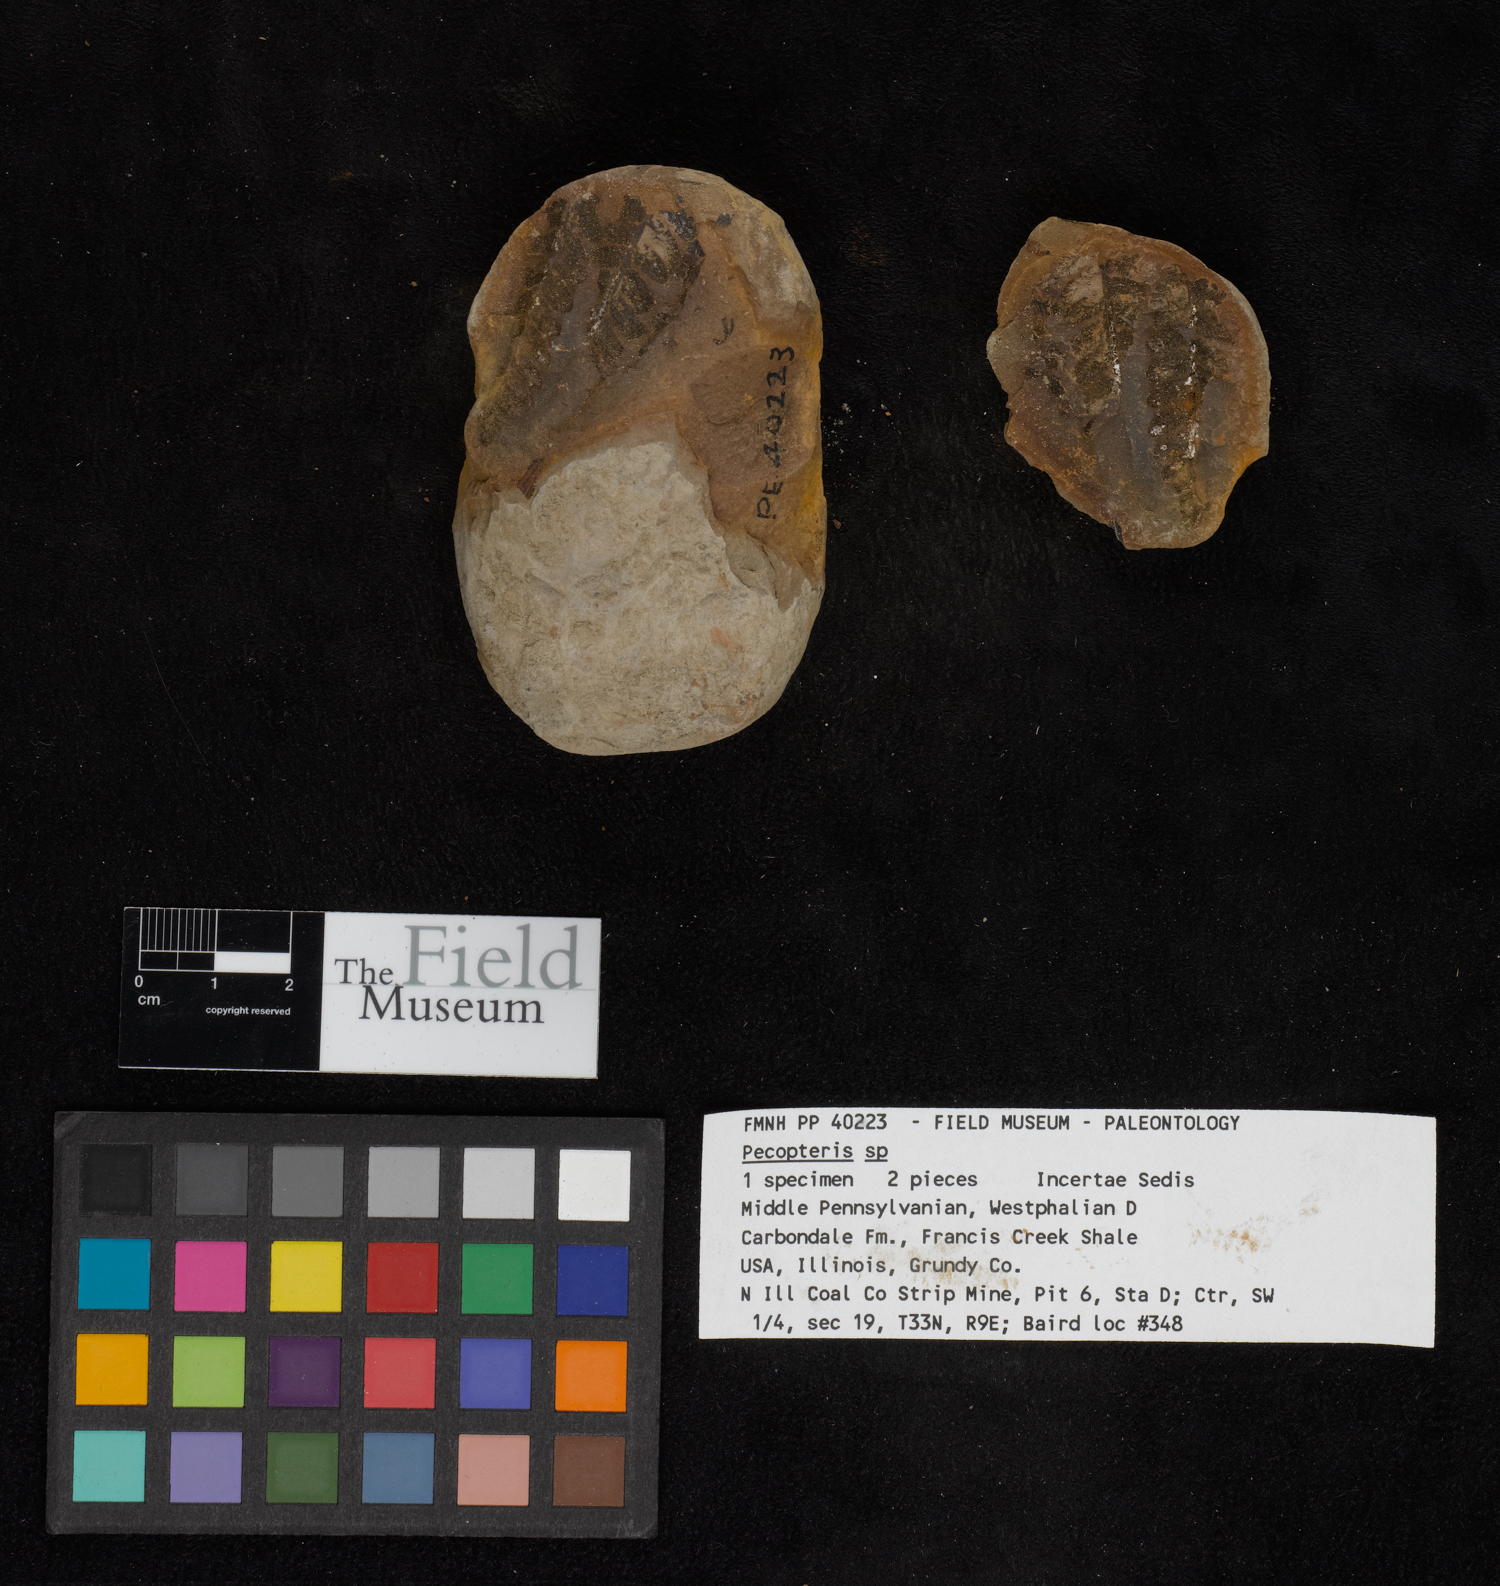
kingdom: Plantae
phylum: Tracheophyta
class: Polypodiopsida
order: Marattiales
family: Asterothecaceae
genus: Pecopteris
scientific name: Pecopteris
